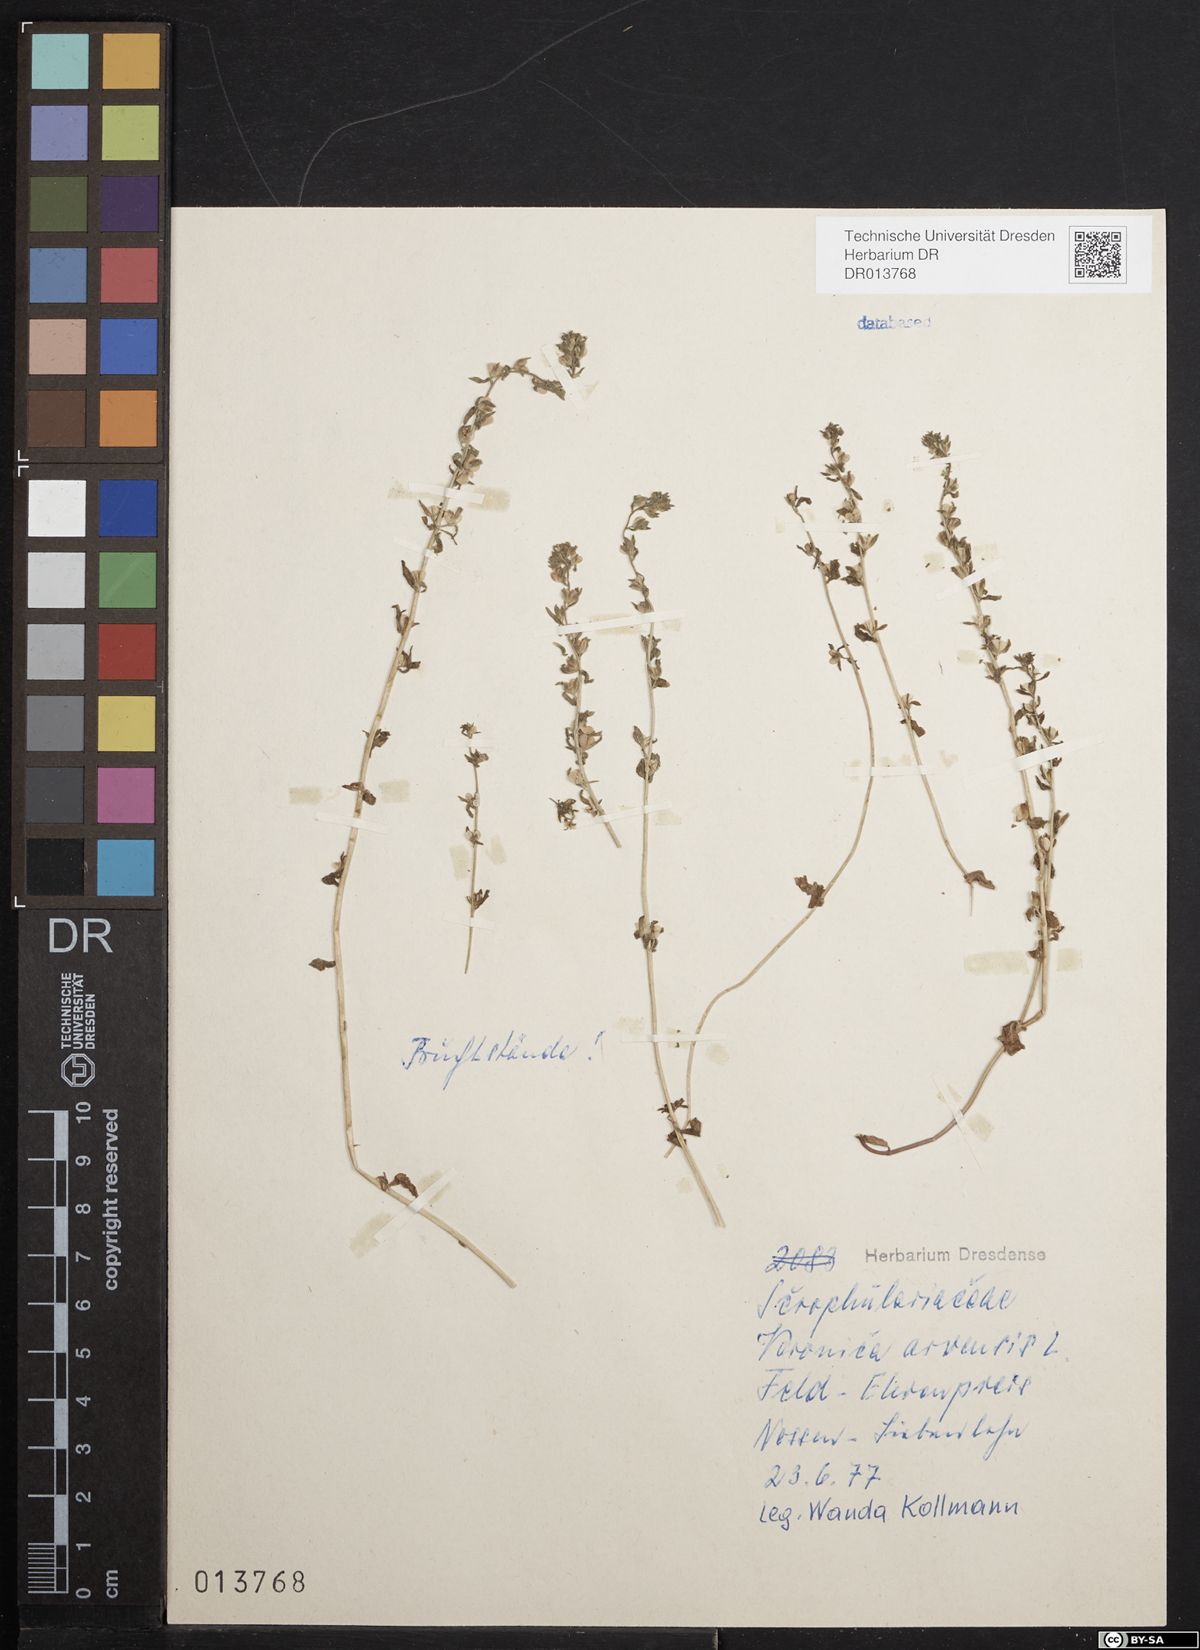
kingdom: Plantae
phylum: Tracheophyta
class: Magnoliopsida
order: Lamiales
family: Plantaginaceae
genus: Veronica
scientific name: Veronica arvensis
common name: Corn speedwell
